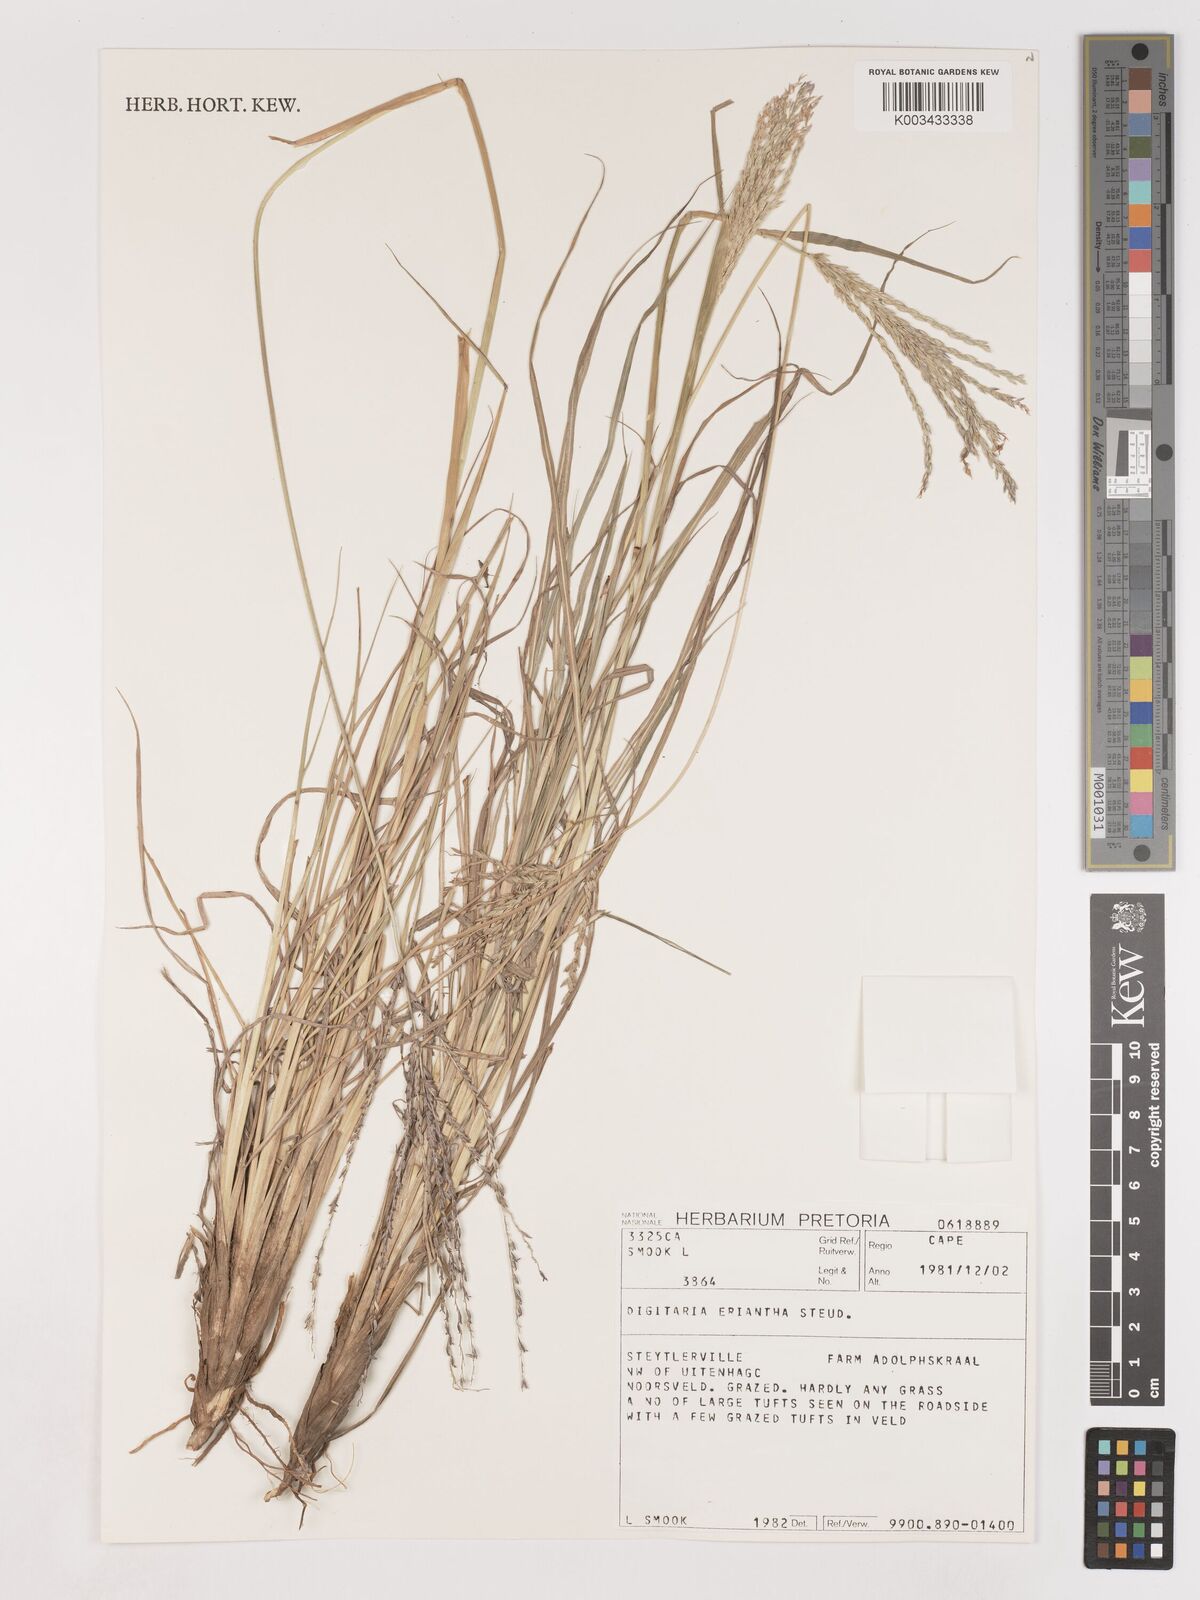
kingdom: Plantae
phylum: Tracheophyta
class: Liliopsida
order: Poales
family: Poaceae
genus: Digitaria
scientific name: Digitaria eriantha
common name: Digitgrass
